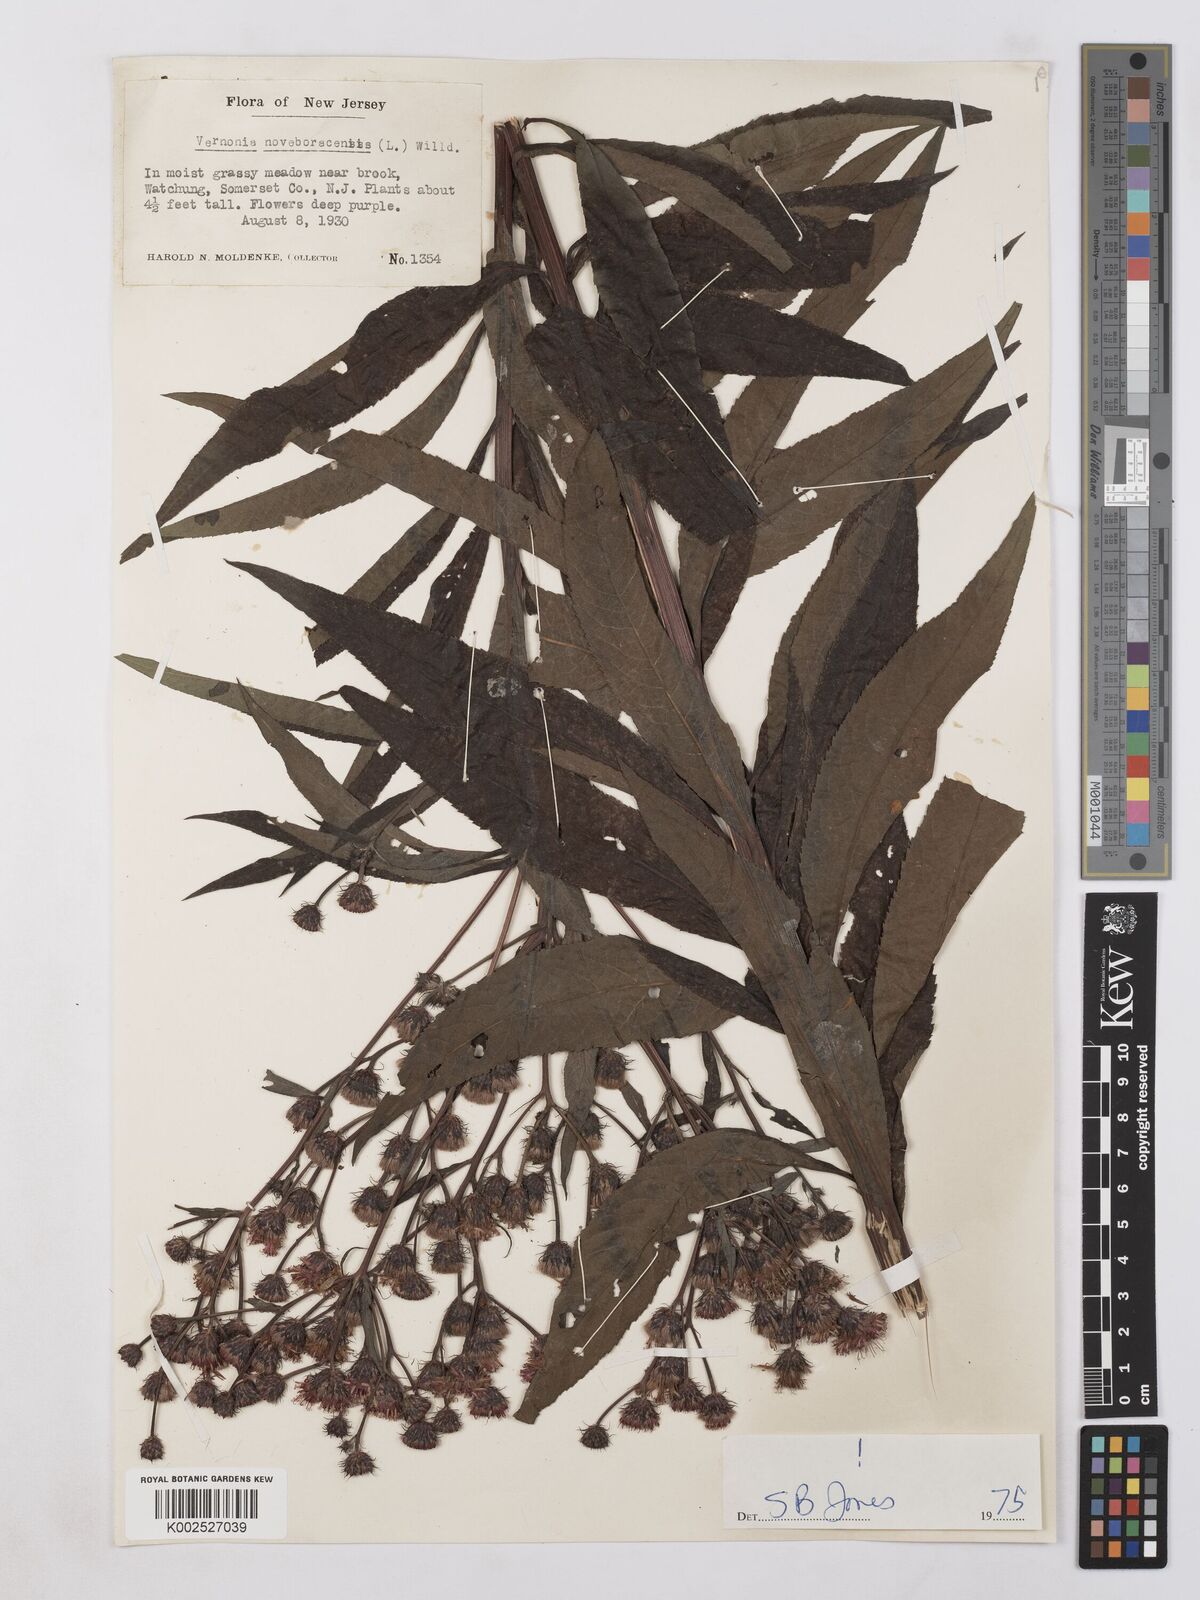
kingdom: Plantae
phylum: Tracheophyta
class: Magnoliopsida
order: Asterales
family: Asteraceae
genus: Vernonia
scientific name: Vernonia noveboracensis
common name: New york ironweed
